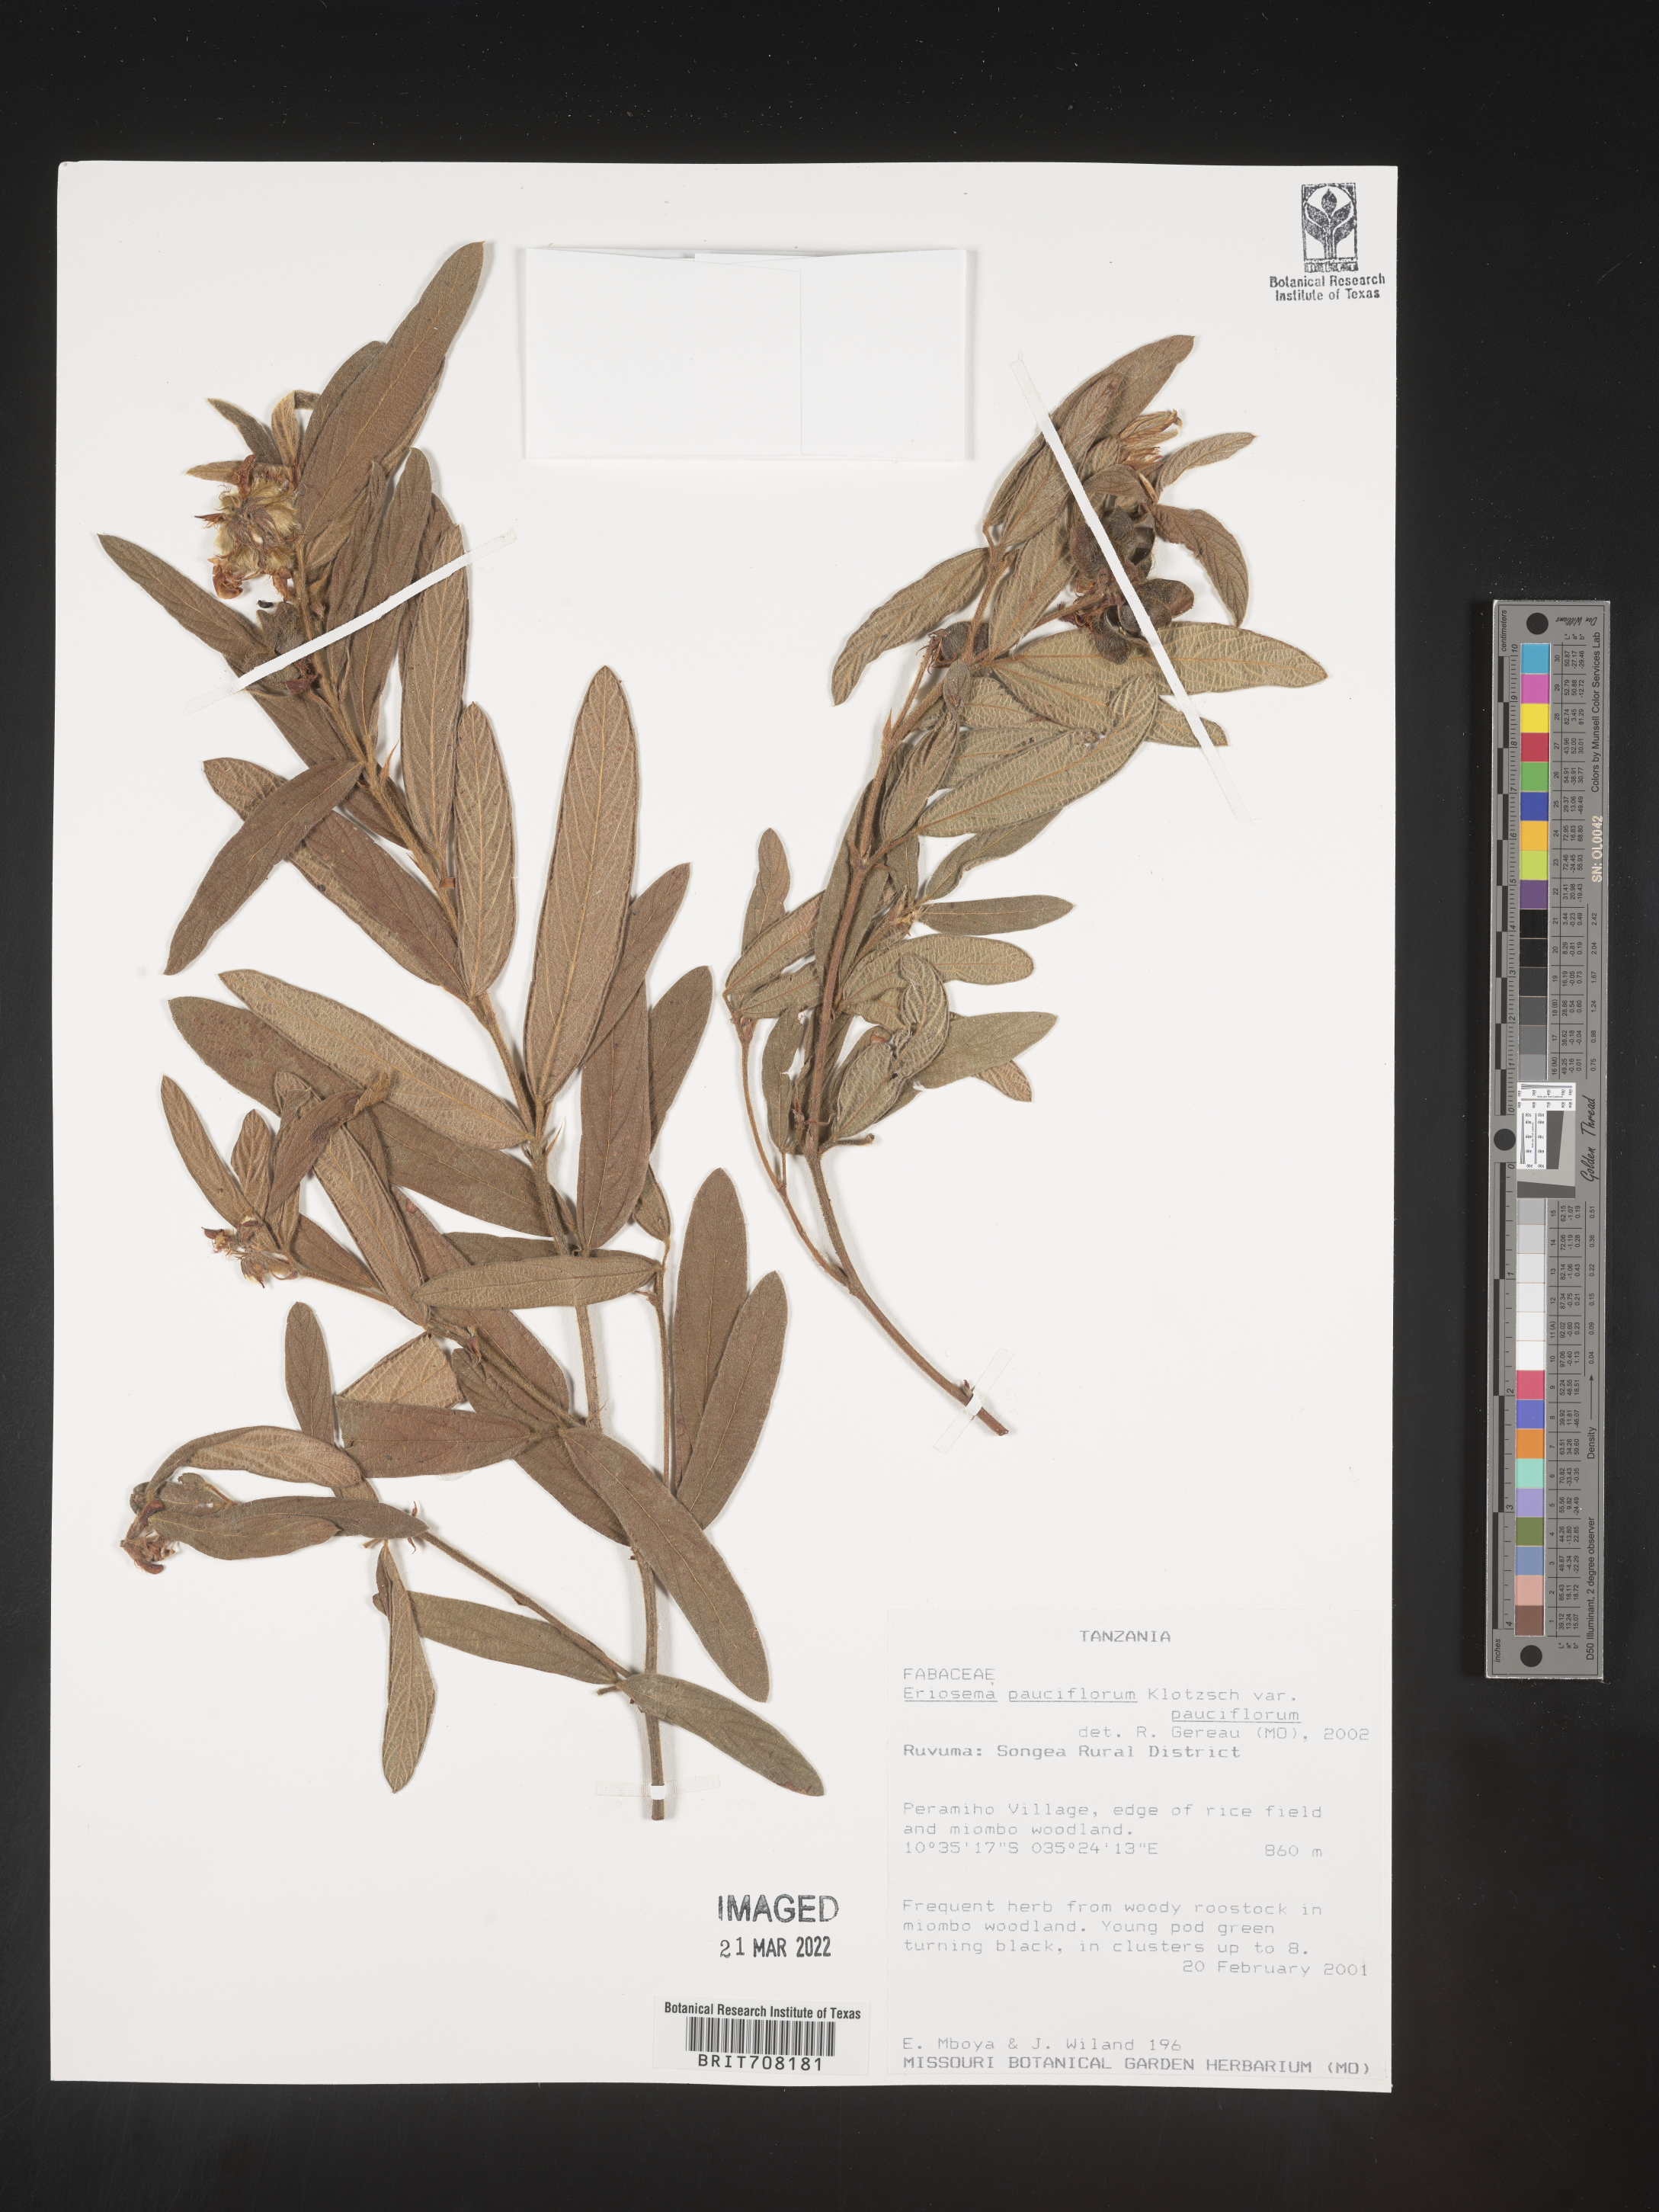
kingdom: Plantae
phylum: Tracheophyta
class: Magnoliopsida
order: Fabales
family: Fabaceae
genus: Eriosema
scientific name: Eriosema
